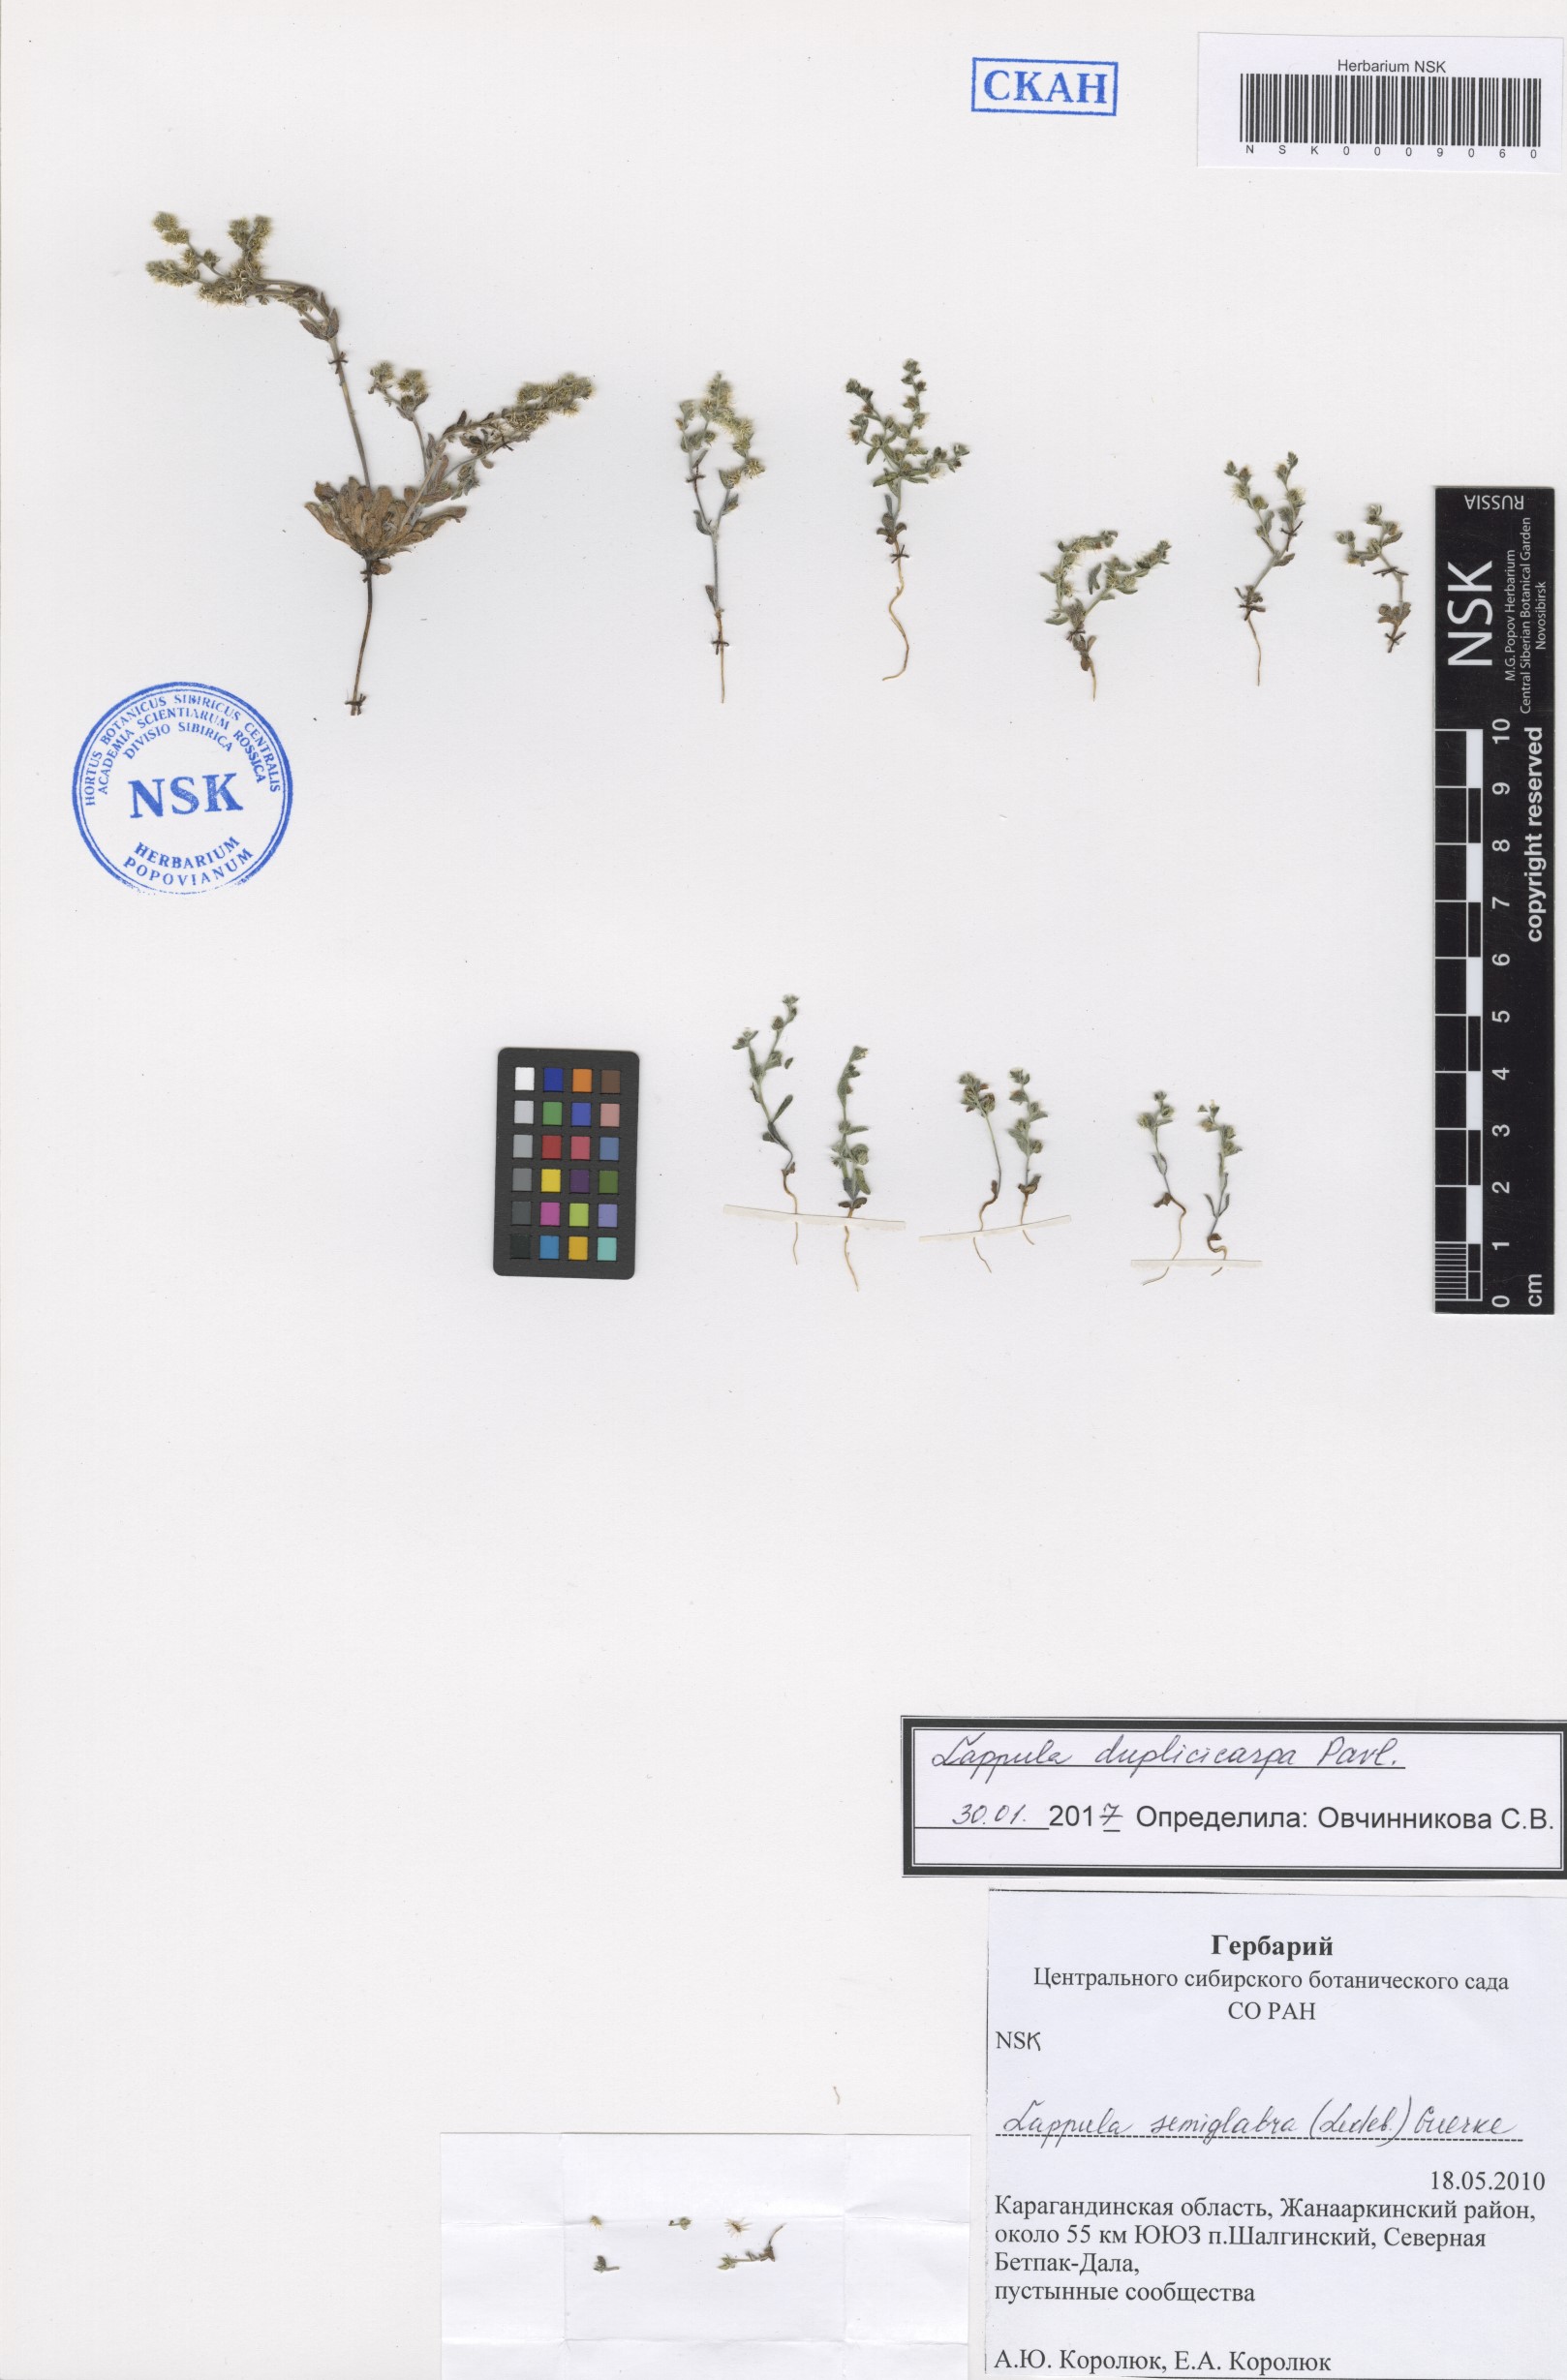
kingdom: Plantae
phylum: Tracheophyta
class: Magnoliopsida
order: Boraginales
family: Boraginaceae
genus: Lappula
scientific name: Lappula duplicicarpa
